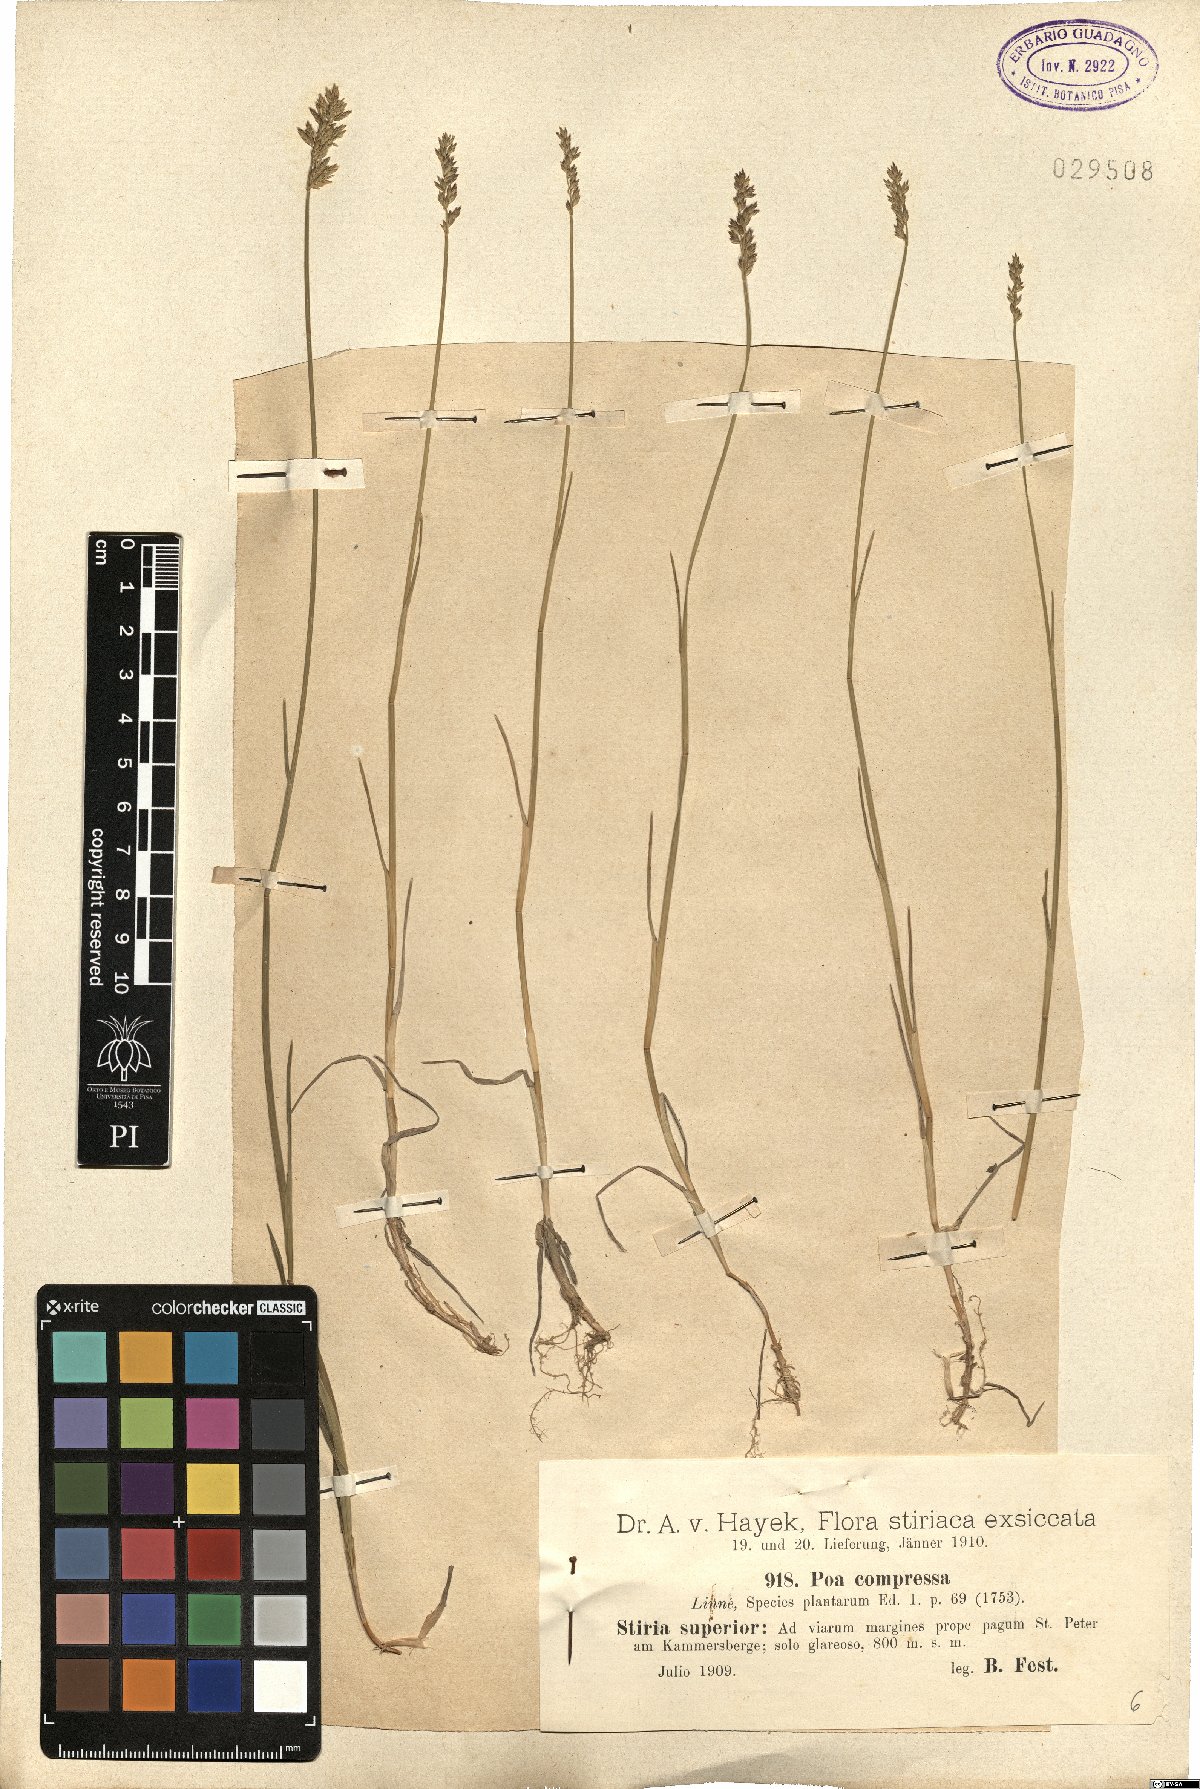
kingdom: Plantae
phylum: Tracheophyta
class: Liliopsida
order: Poales
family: Poaceae
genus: Poa
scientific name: Poa compressa
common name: Canada bluegrass
